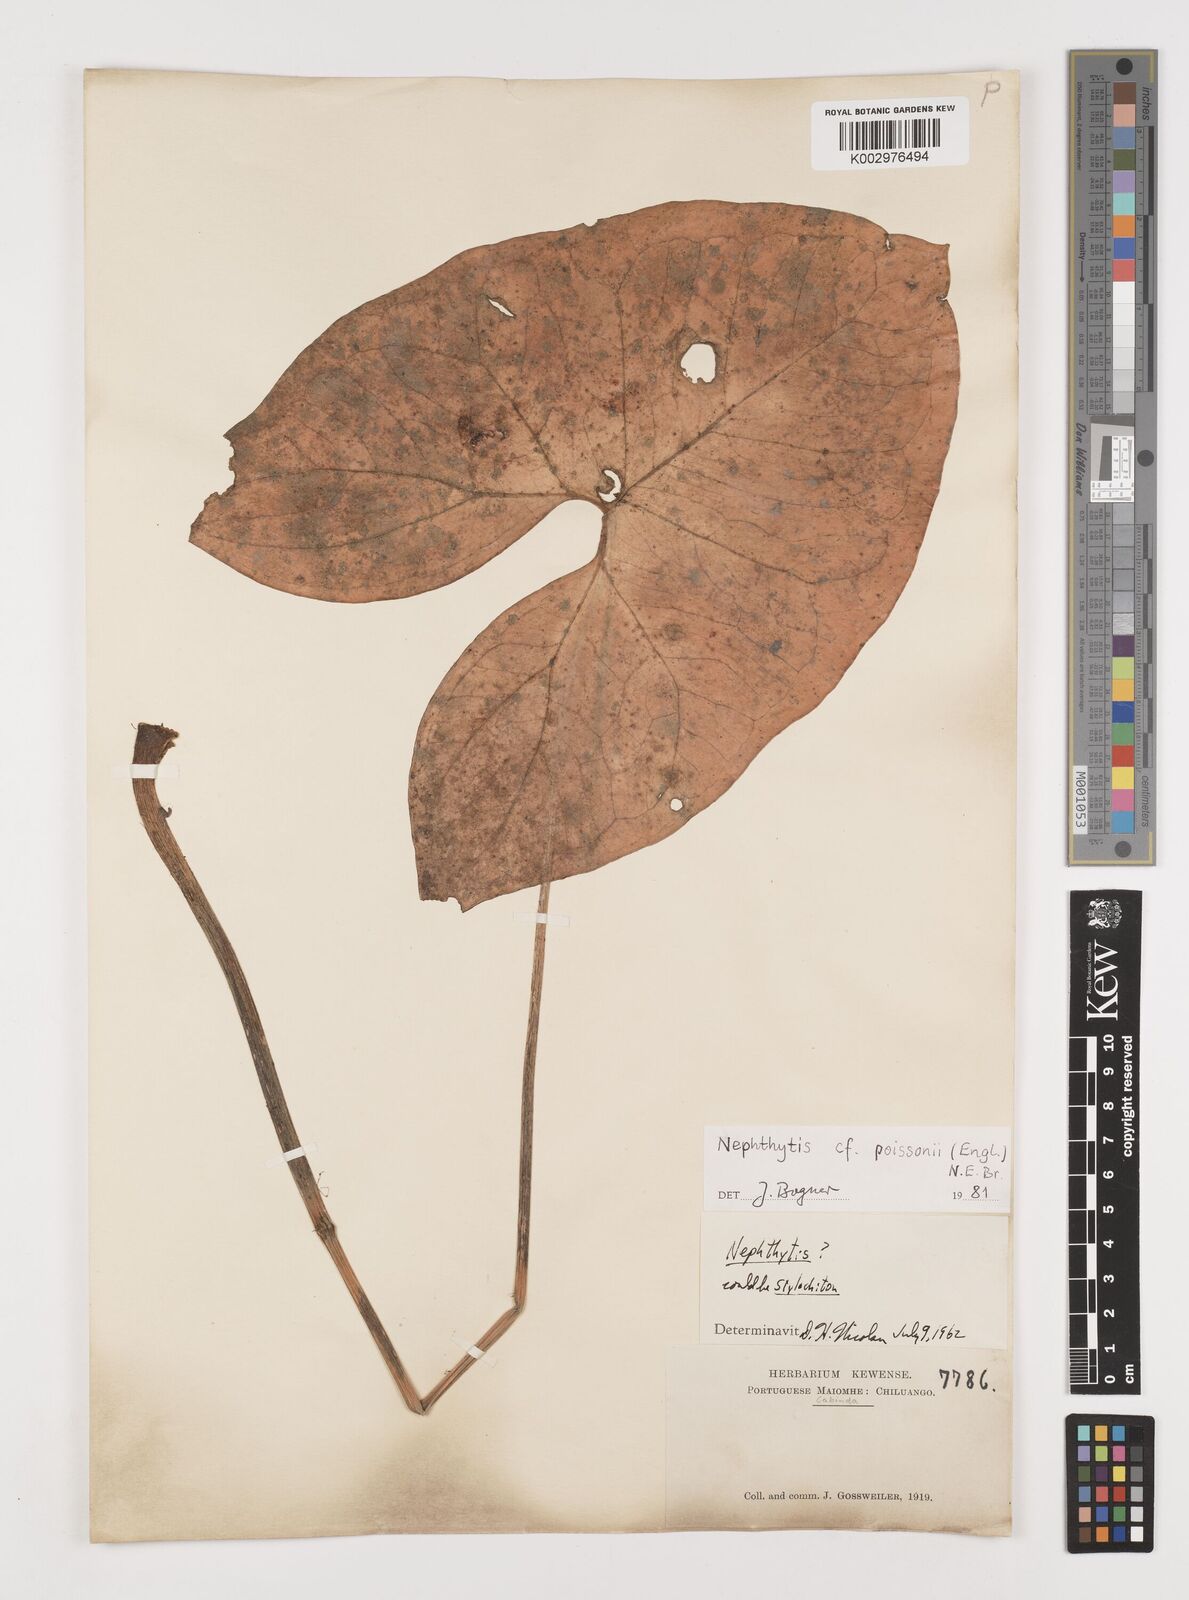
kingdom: Plantae
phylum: Tracheophyta
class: Liliopsida
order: Alismatales
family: Araceae
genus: Nephthytis
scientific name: Nephthytis
